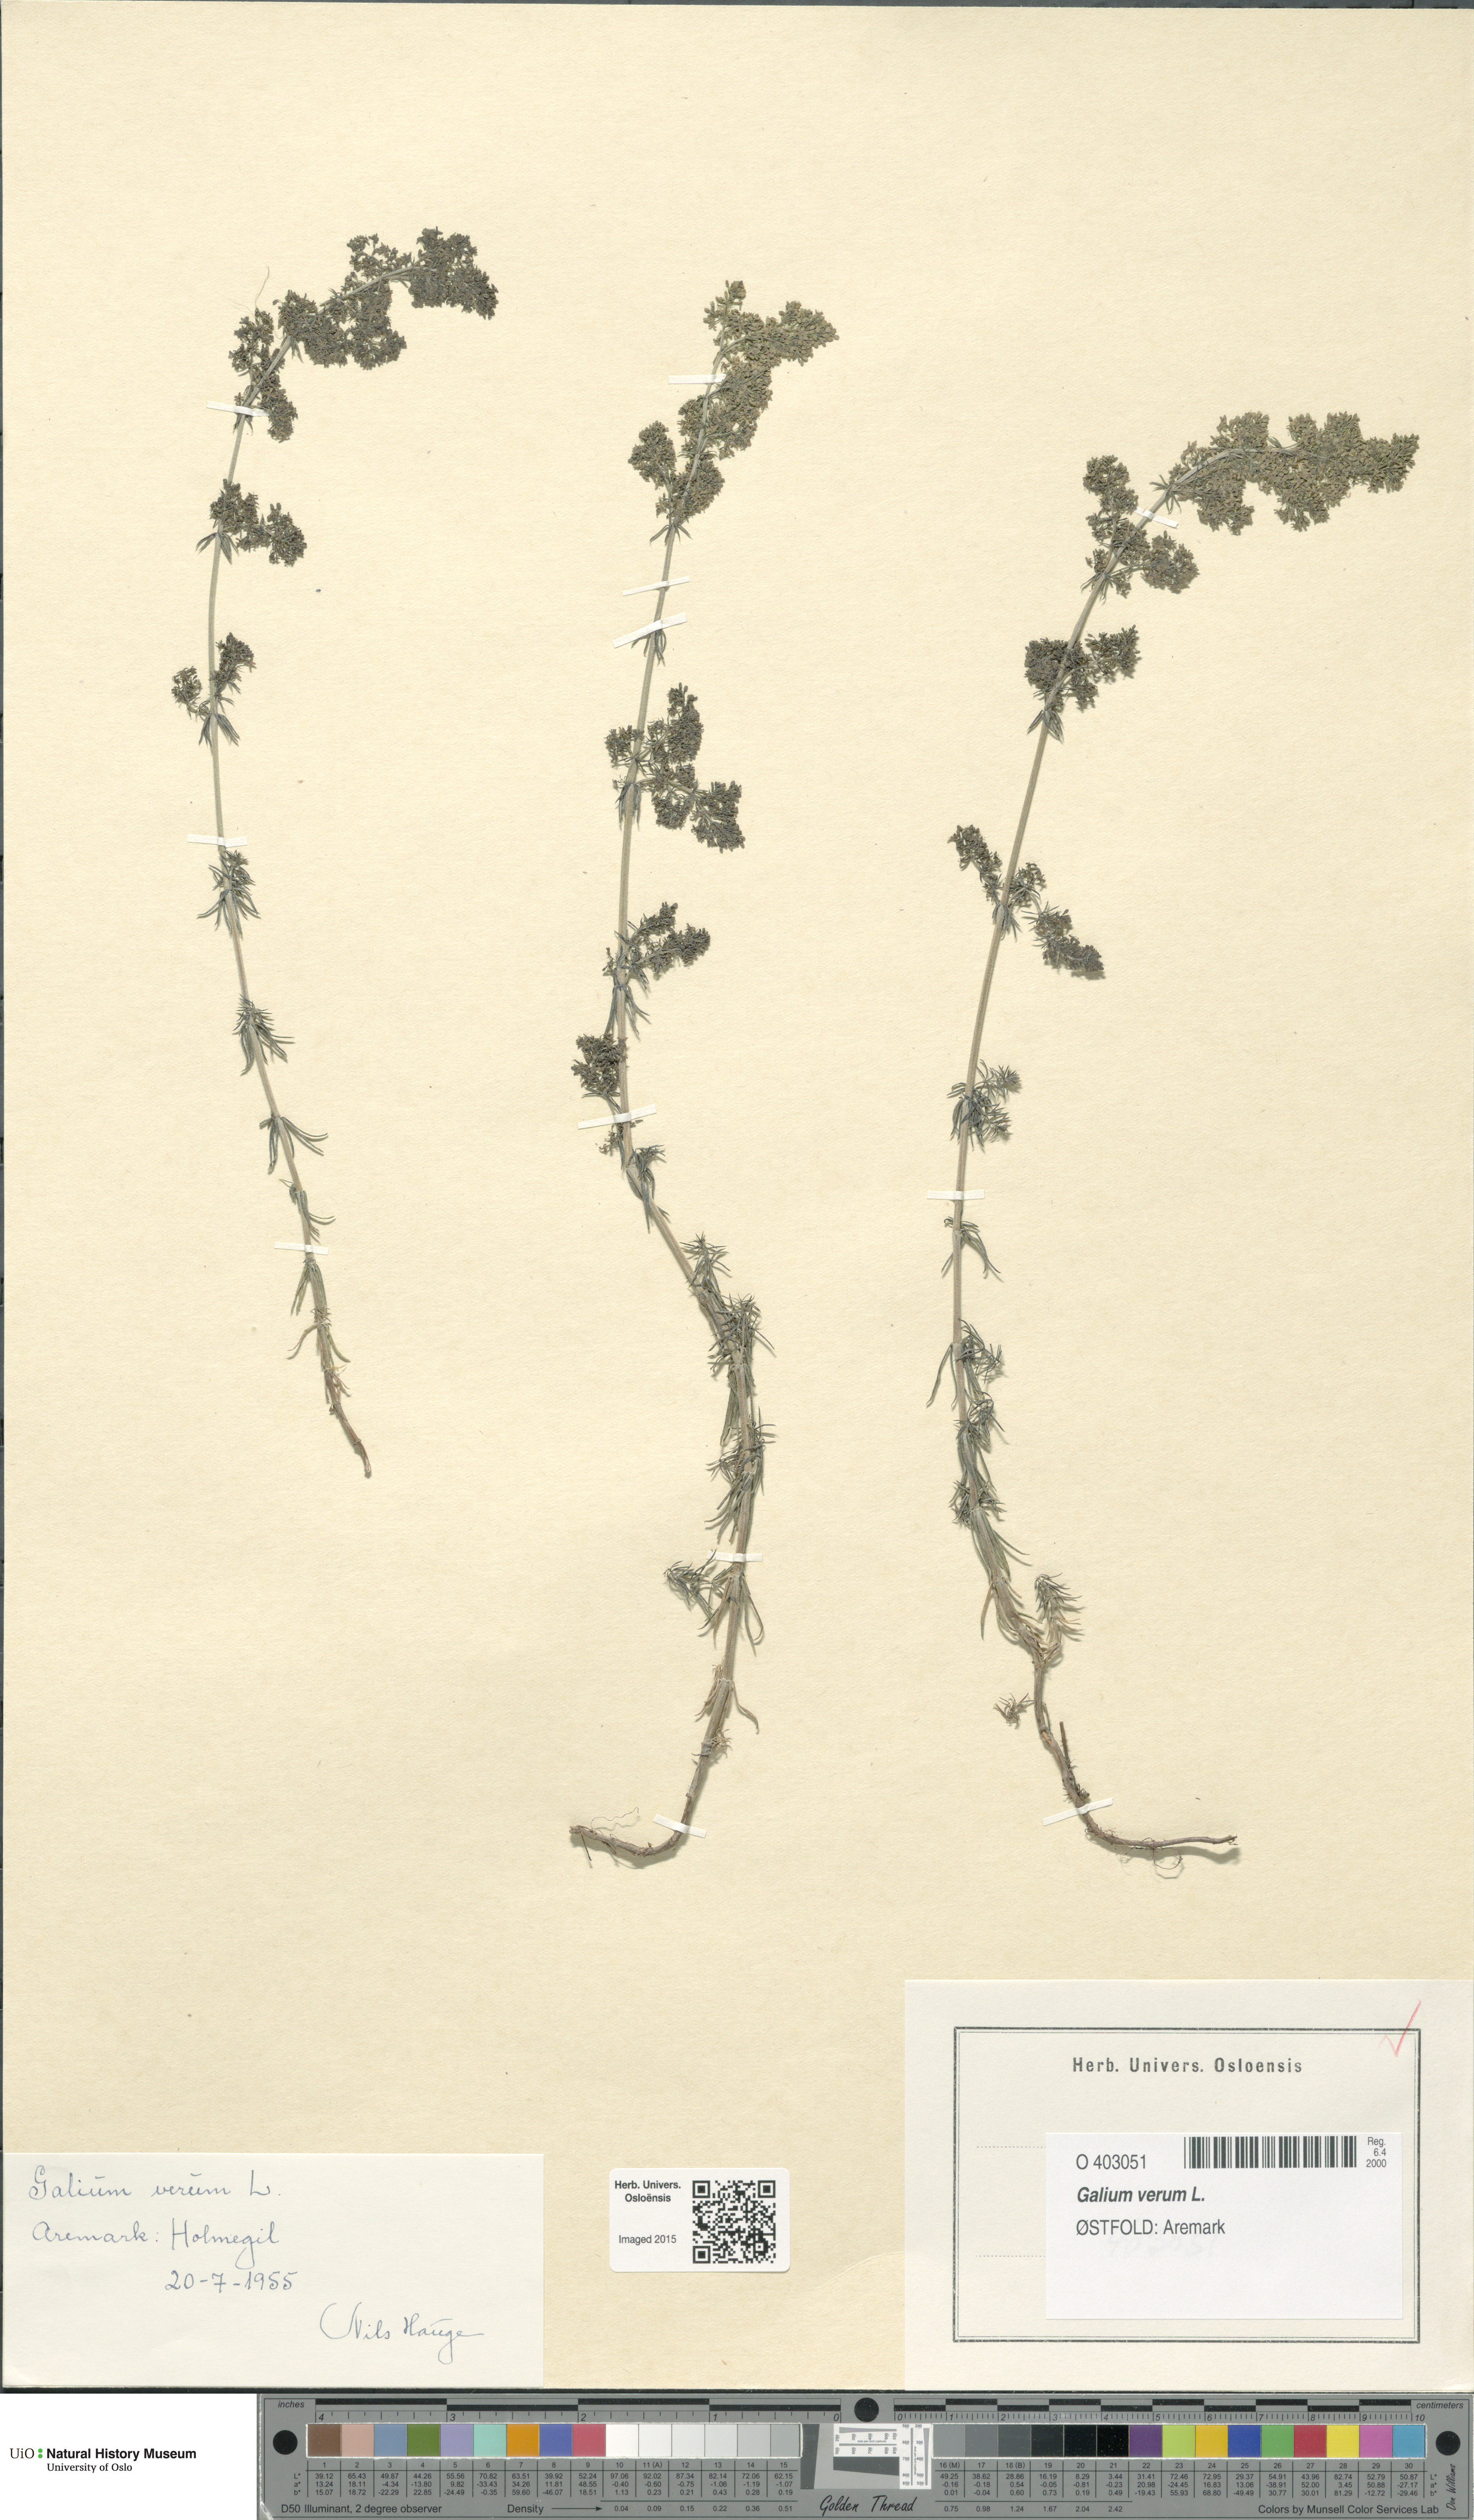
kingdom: Plantae
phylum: Tracheophyta
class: Magnoliopsida
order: Gentianales
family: Rubiaceae
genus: Galium
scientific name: Galium verum
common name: Lady's bedstraw
